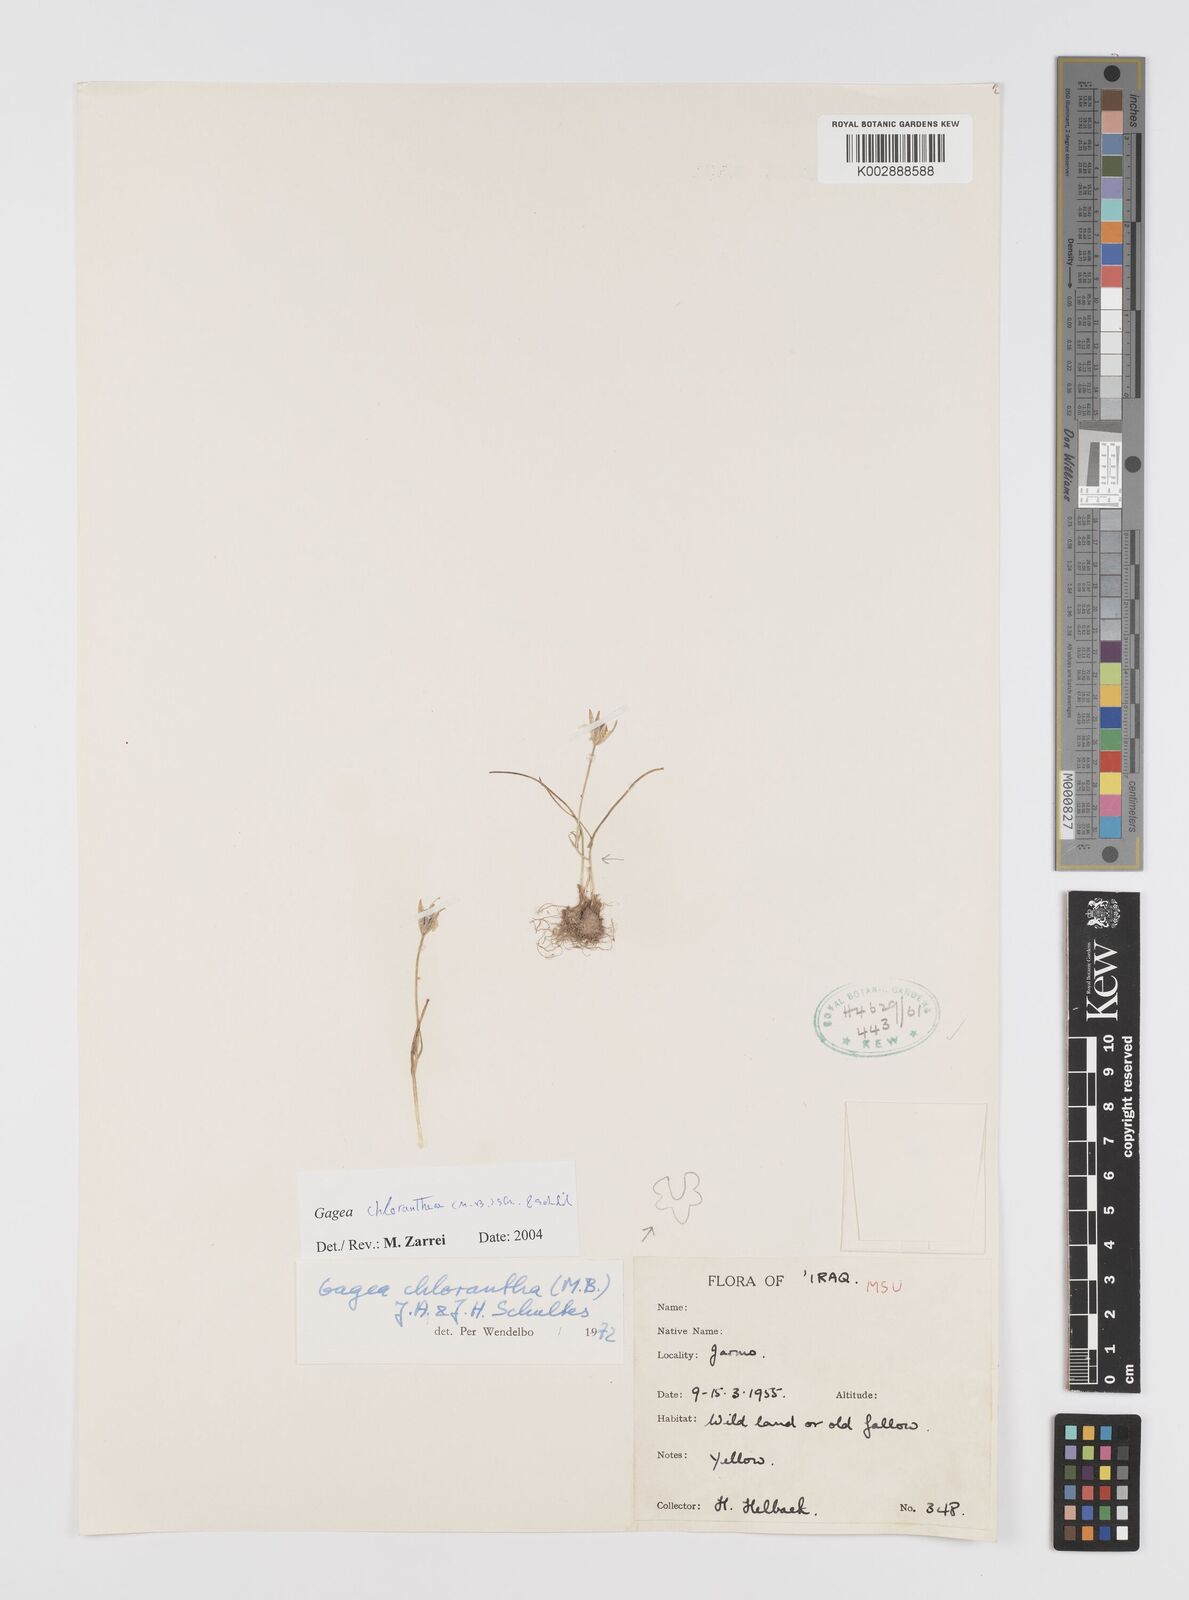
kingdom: Plantae
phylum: Tracheophyta
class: Liliopsida
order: Liliales
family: Liliaceae
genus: Gagea
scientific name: Gagea chlorantha
